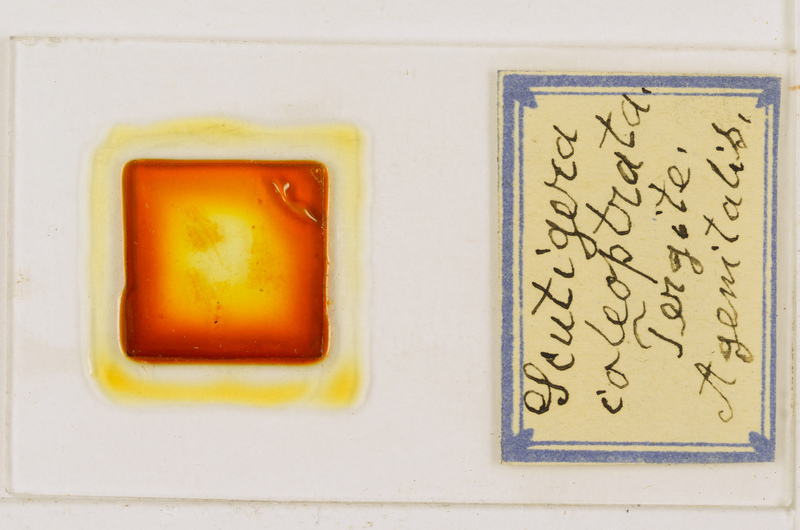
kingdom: Animalia
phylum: Arthropoda
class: Chilopoda
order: Scutigeromorpha
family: Scutigeridae
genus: Scutigera
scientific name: Scutigera coleoptrata
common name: House centipede
